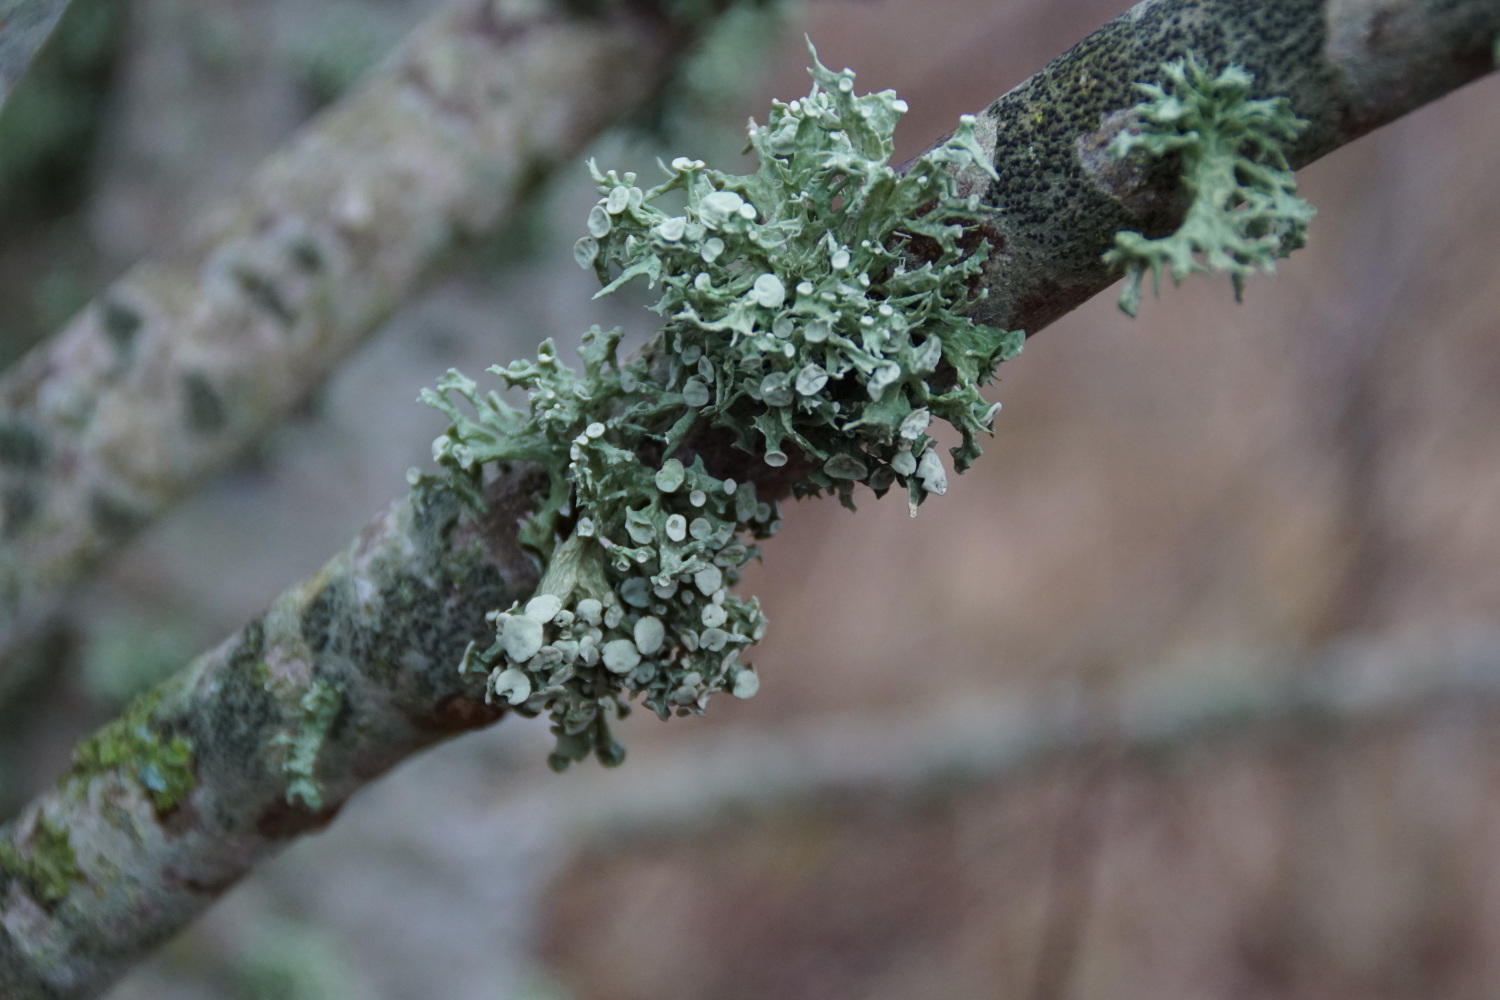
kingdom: Fungi
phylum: Ascomycota
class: Lecanoromycetes
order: Lecanorales
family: Ramalinaceae
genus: Ramalina
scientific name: Ramalina fastigiata
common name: tue-grenlav
